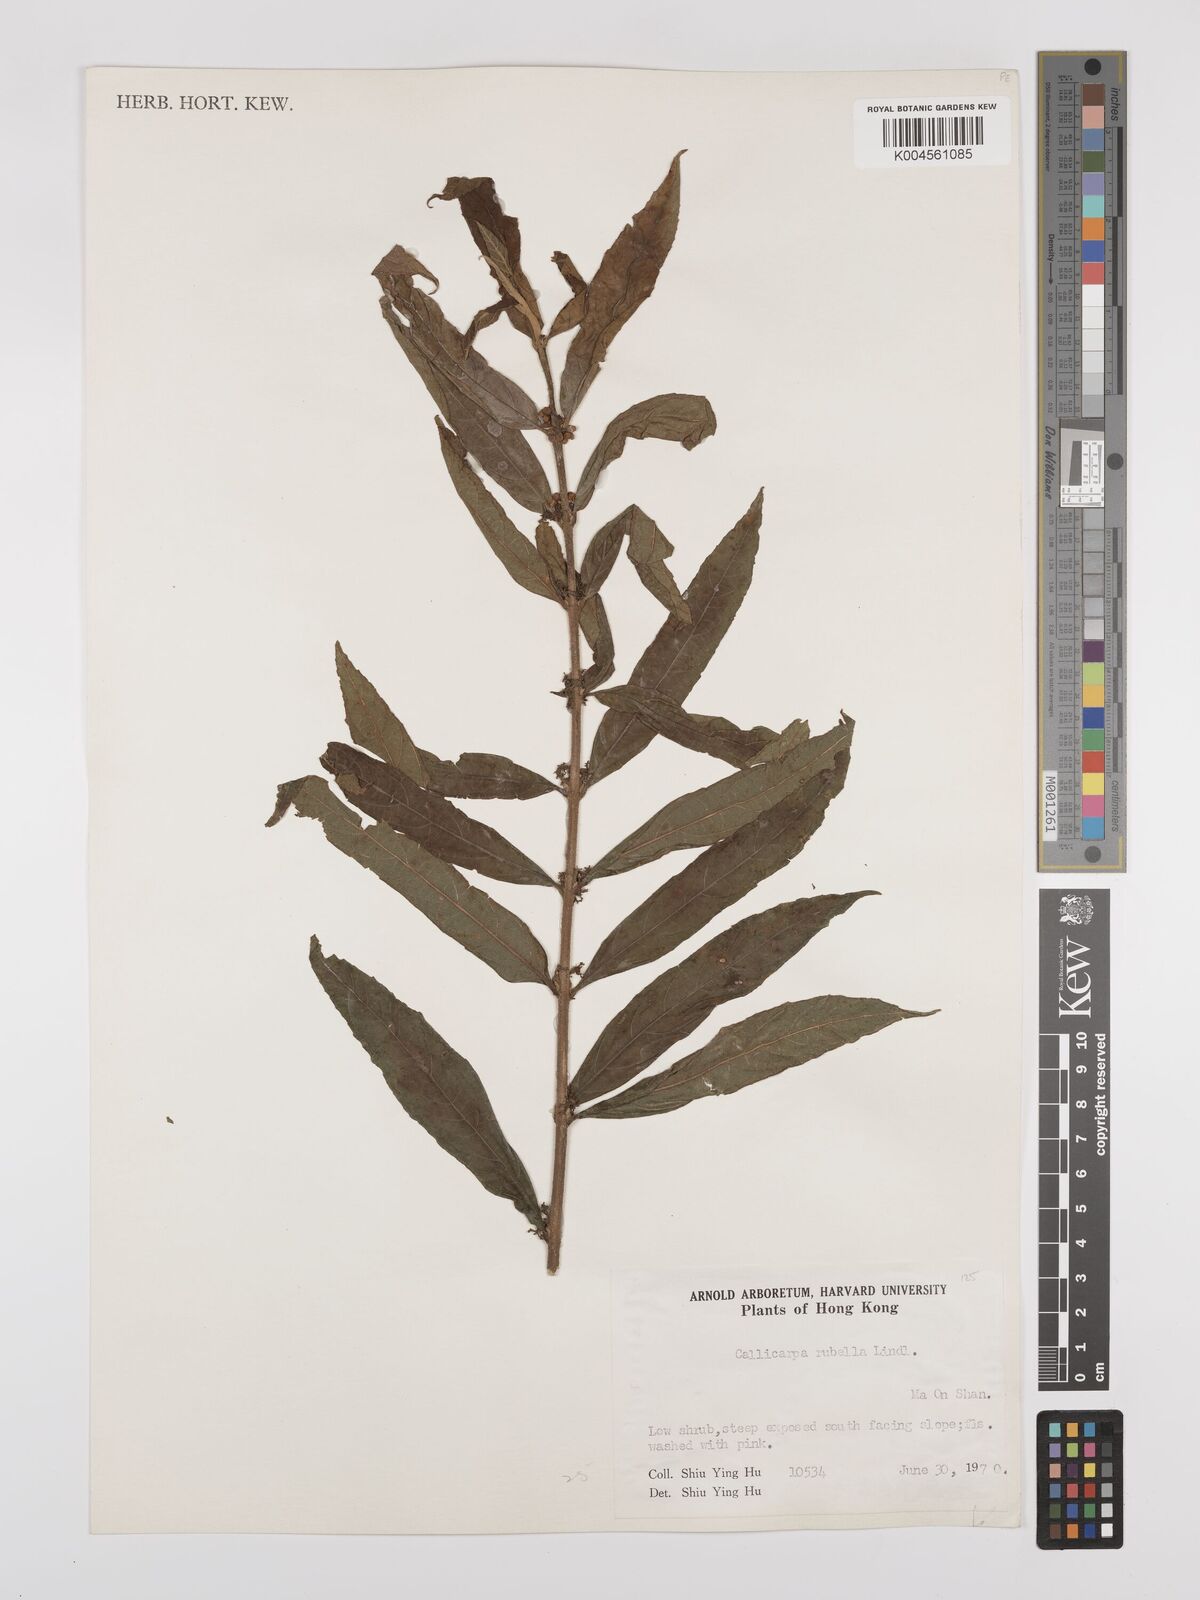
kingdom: Plantae
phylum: Tracheophyta
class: Magnoliopsida
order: Lamiales
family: Lamiaceae
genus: Callicarpa
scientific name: Callicarpa rubella
